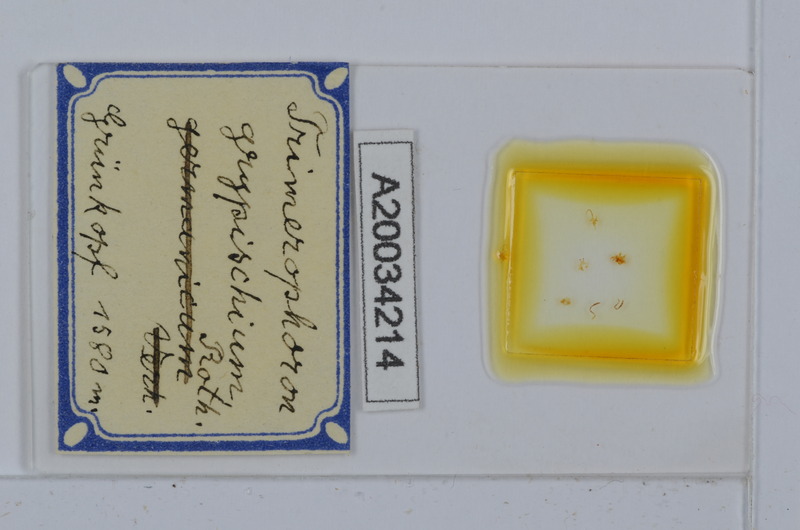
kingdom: Animalia
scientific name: Animalia
